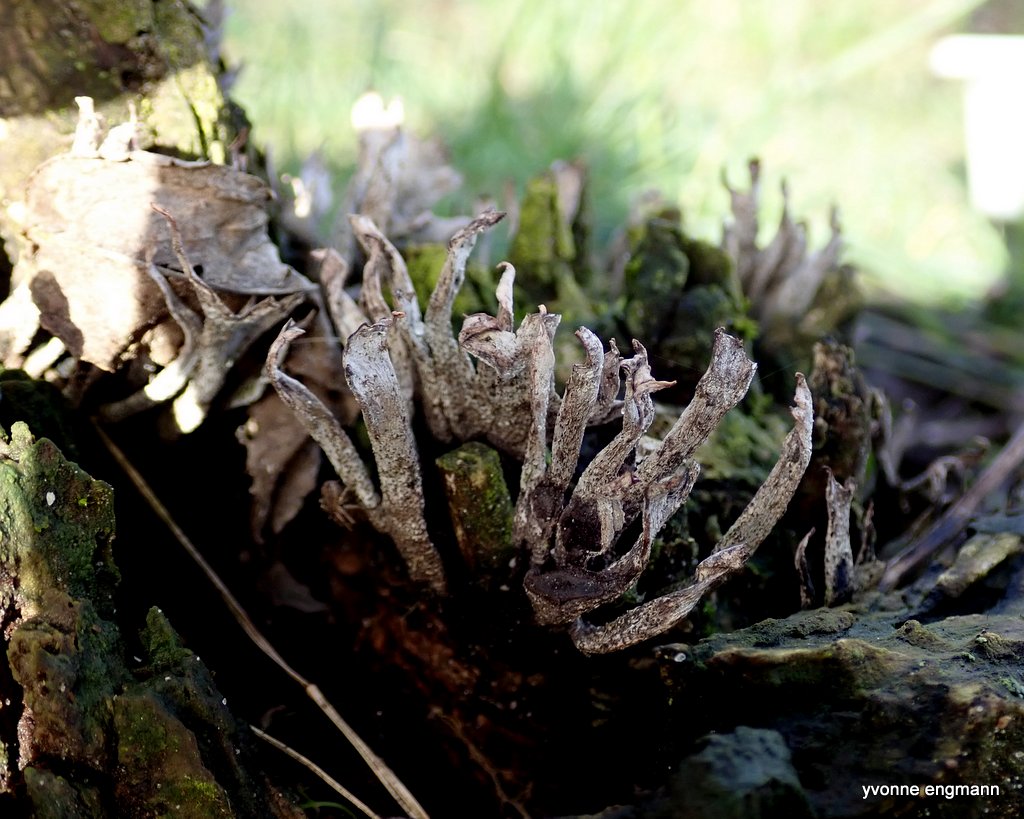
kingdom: Fungi
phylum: Ascomycota
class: Sordariomycetes
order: Xylariales
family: Xylariaceae
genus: Xylaria
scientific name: Xylaria hypoxylon
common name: grenet stødsvamp
